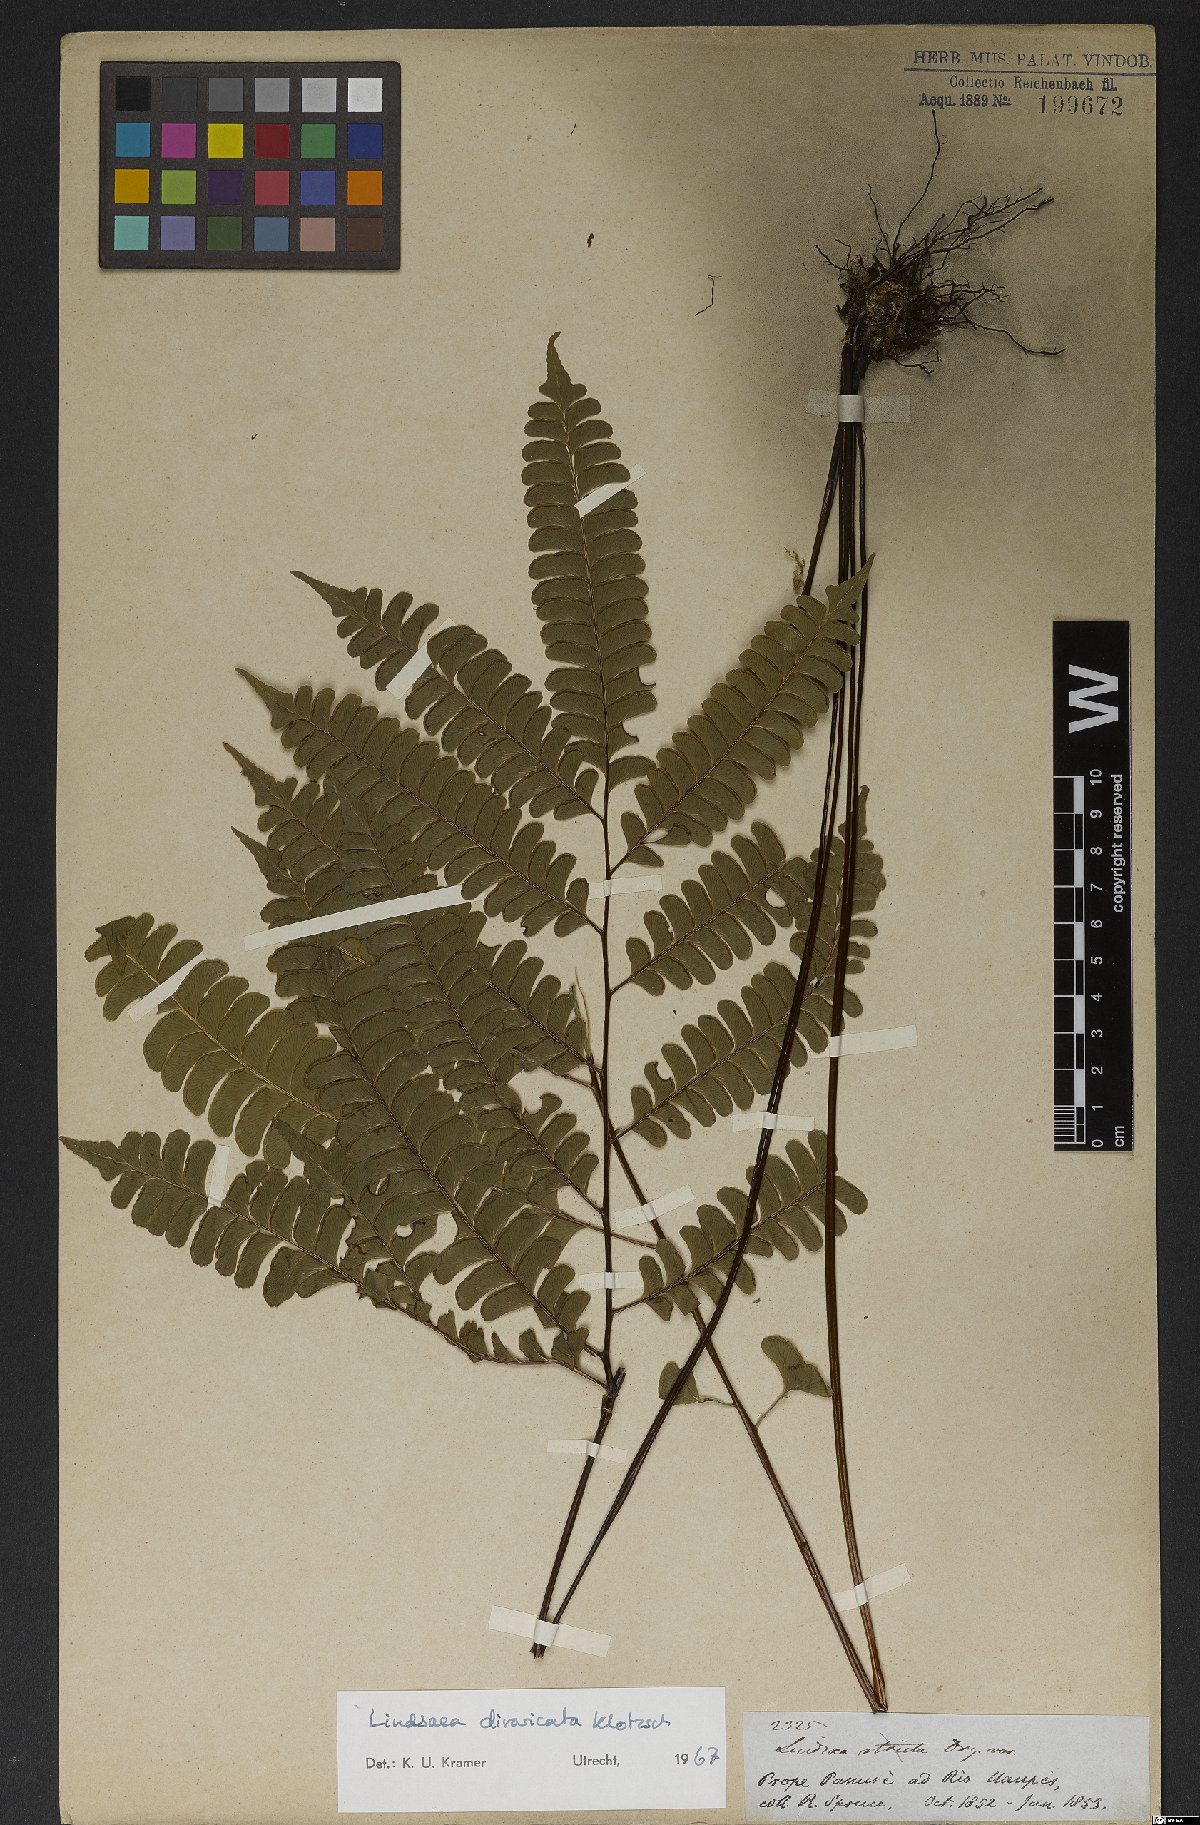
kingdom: Plantae
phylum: Tracheophyta
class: Polypodiopsida
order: Polypodiales
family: Lindsaeaceae
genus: Lindsaea
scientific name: Lindsaea divaricata
